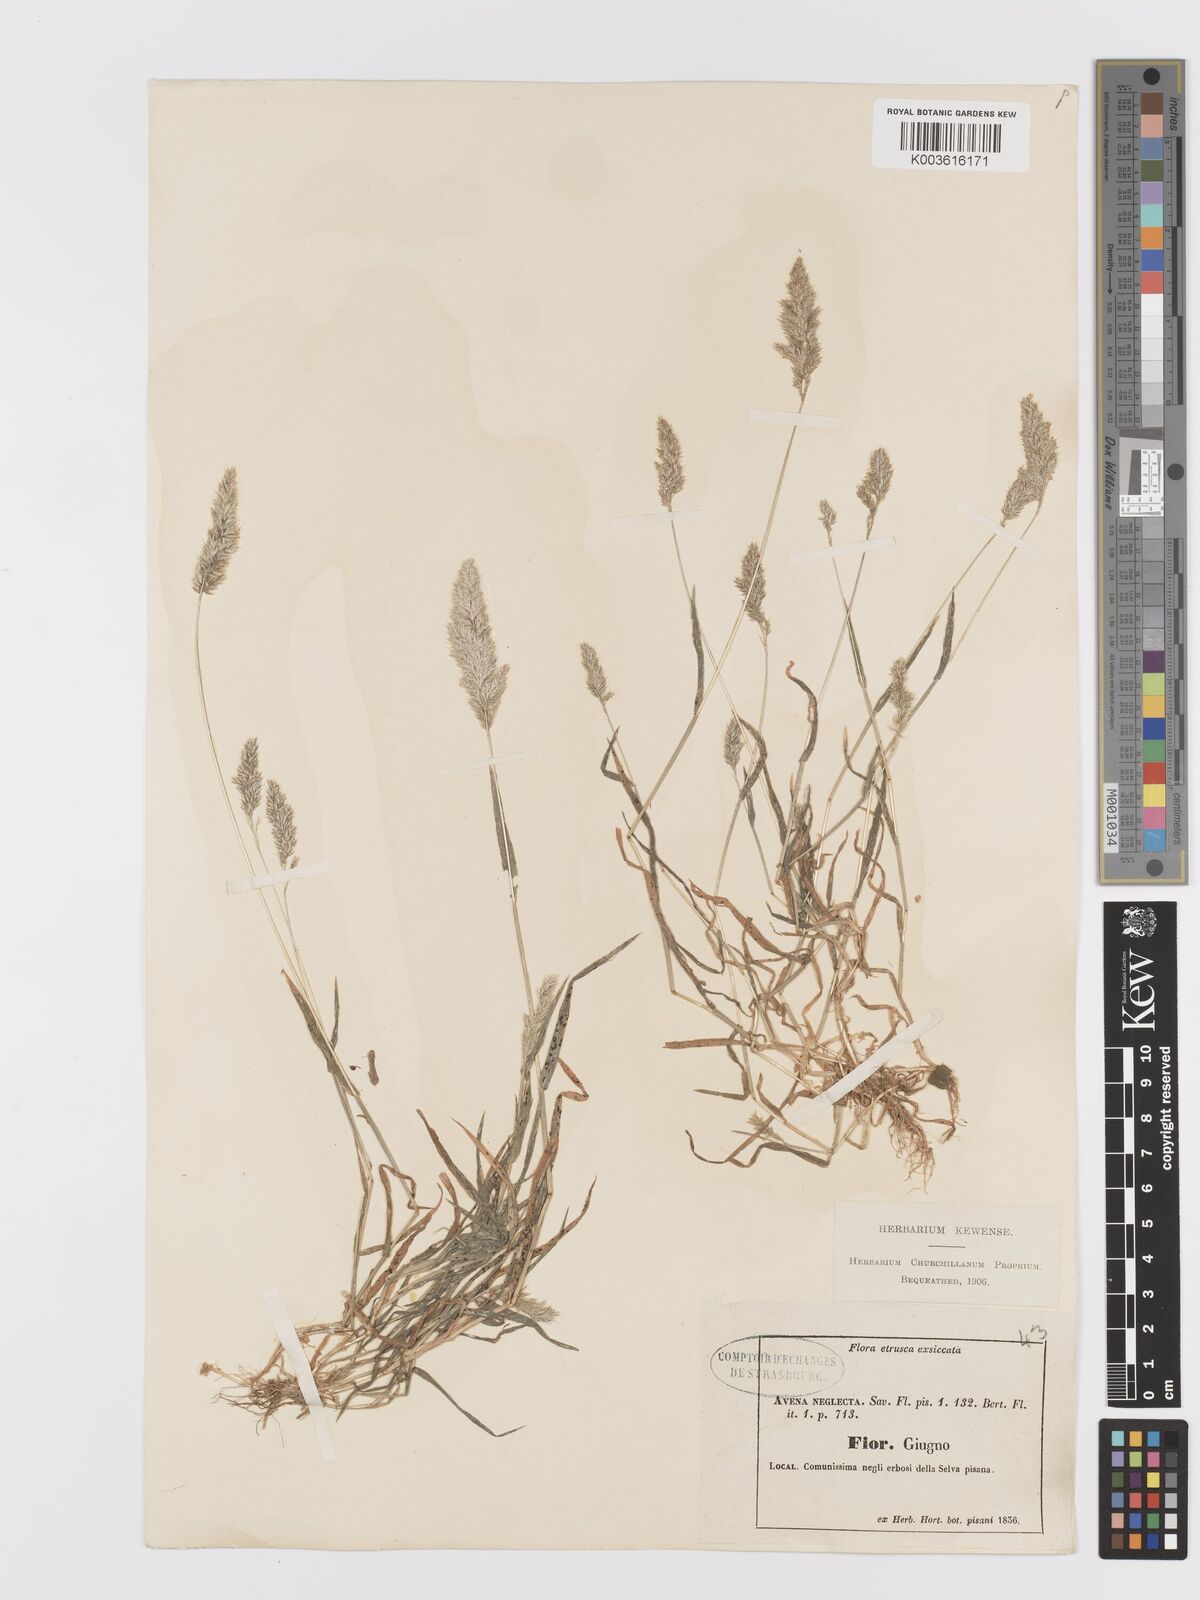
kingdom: Plantae
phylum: Tracheophyta
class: Liliopsida
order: Poales
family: Poaceae
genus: Trisetaria
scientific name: Trisetaria panicea
